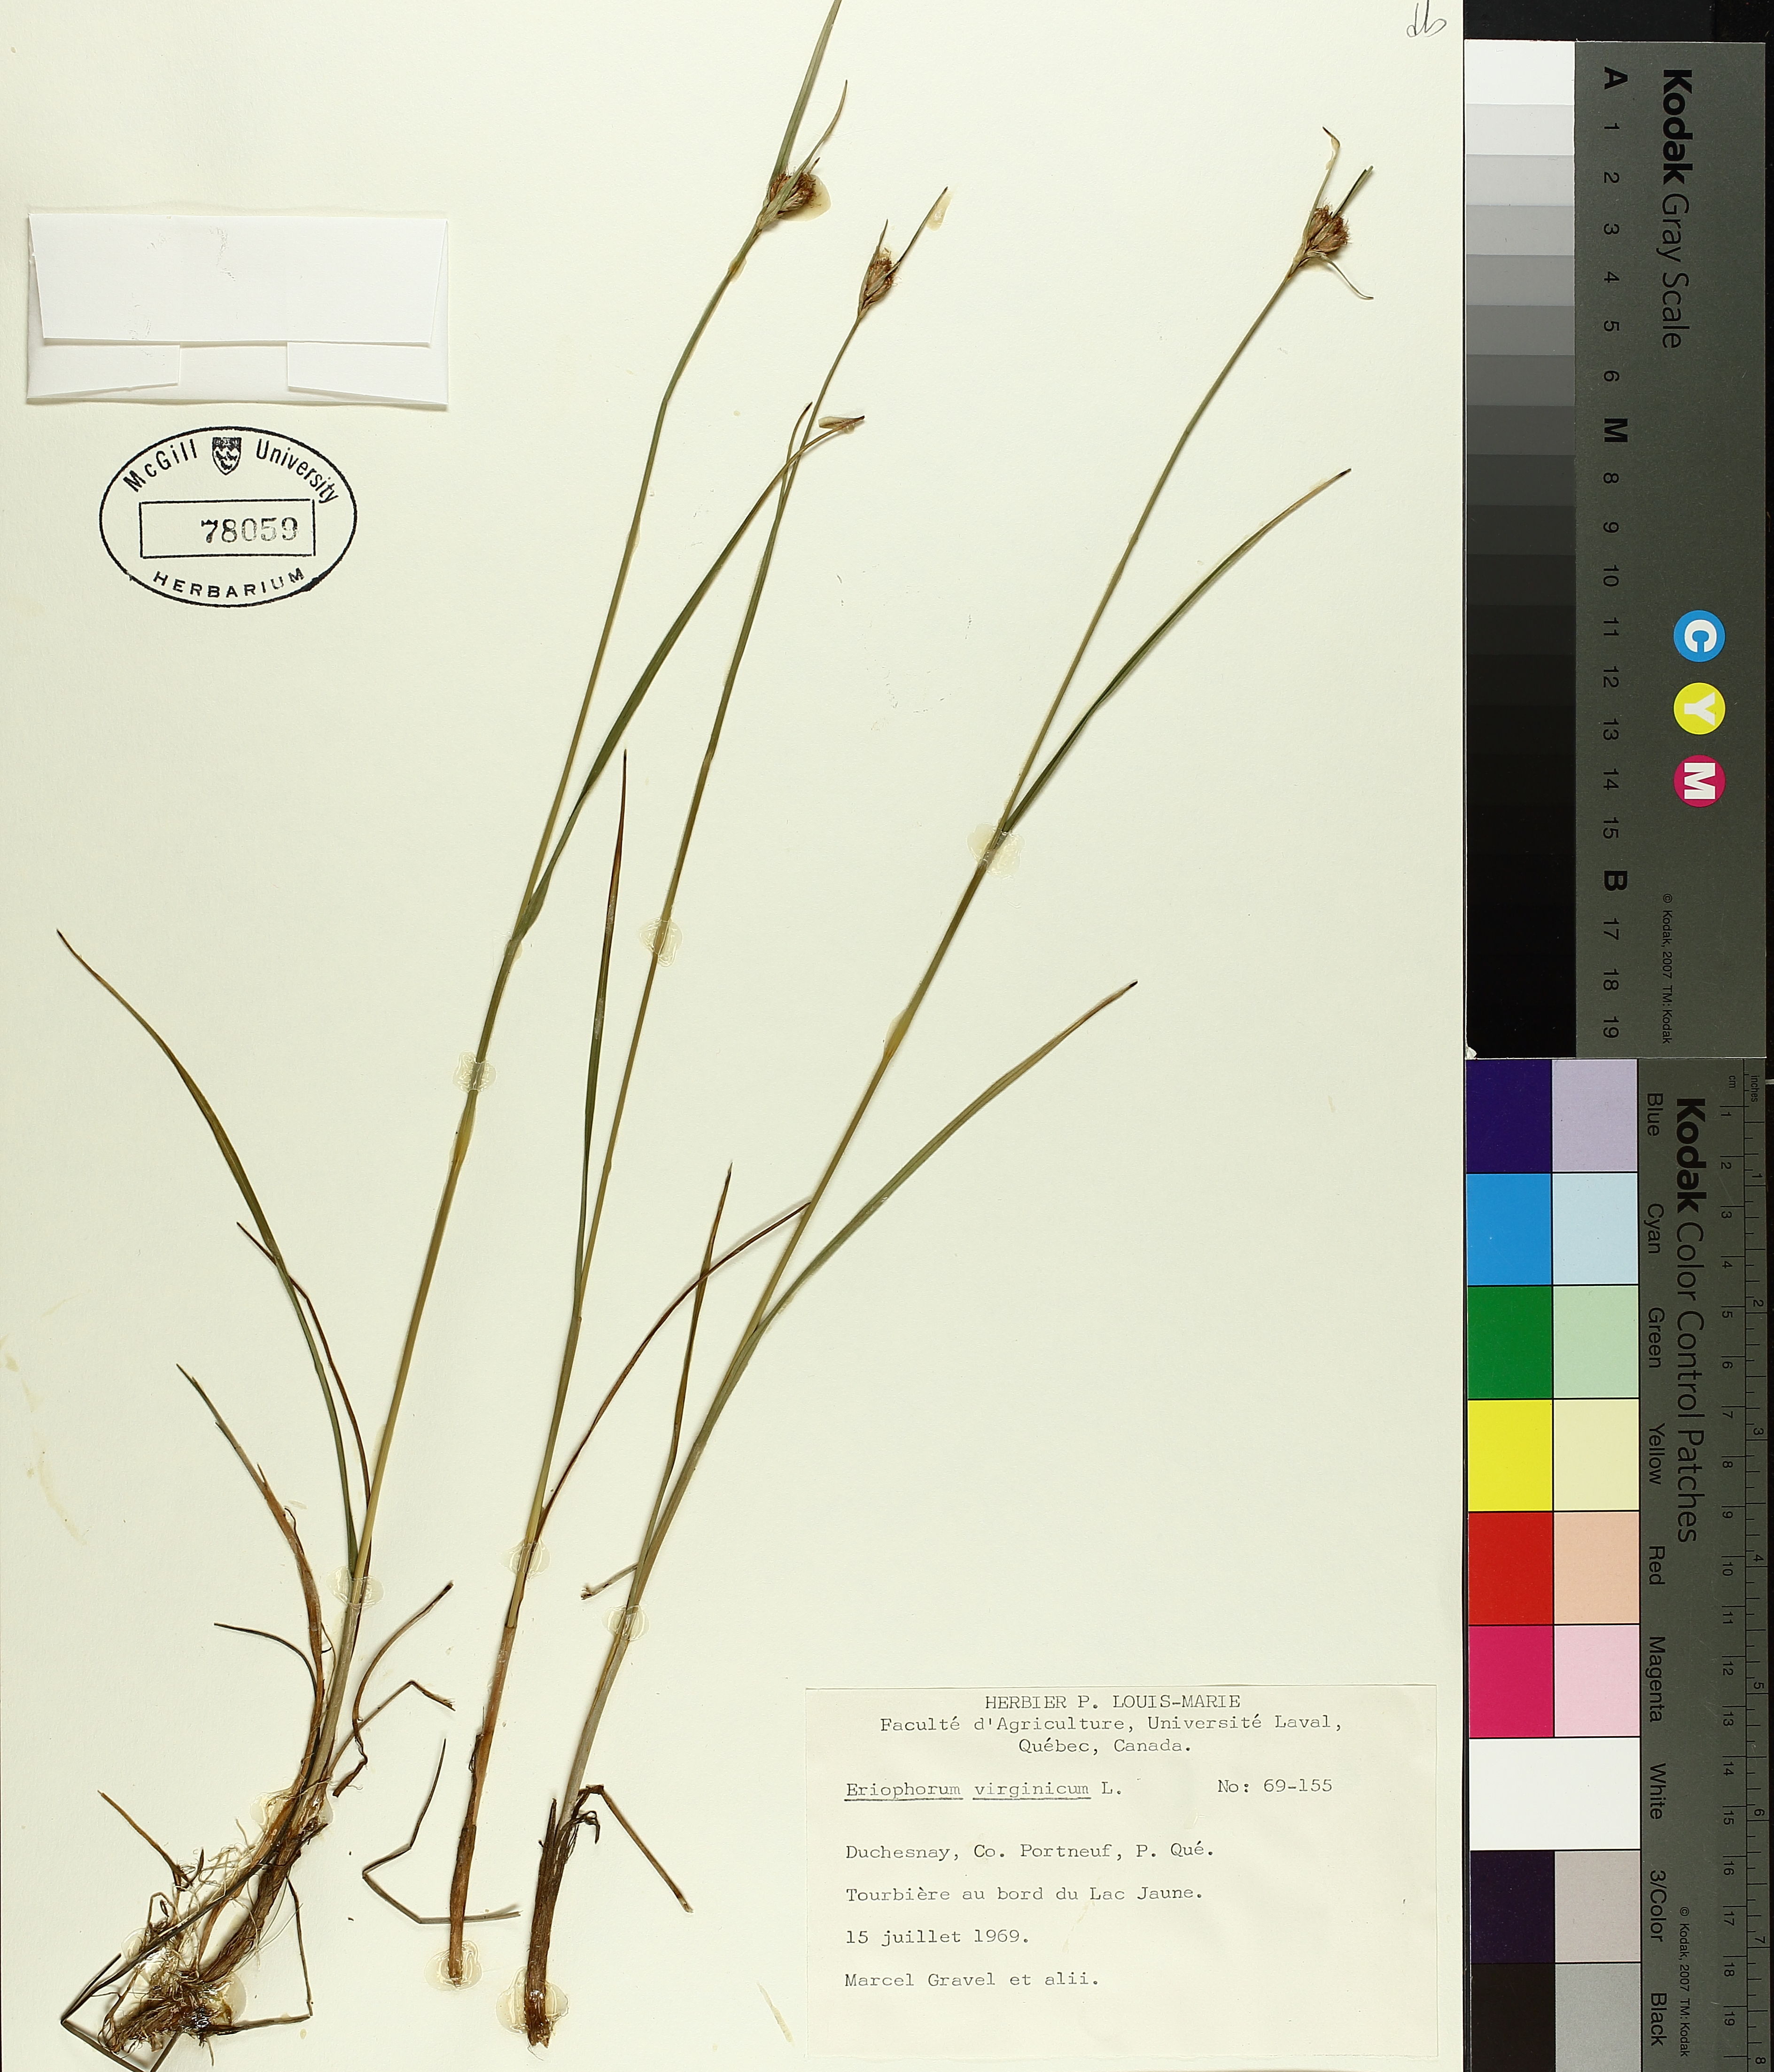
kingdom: Plantae
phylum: Tracheophyta
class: Liliopsida
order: Poales
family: Cyperaceae
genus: Eriophorum
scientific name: Eriophorum virginicum
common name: Tawny cottongrass
